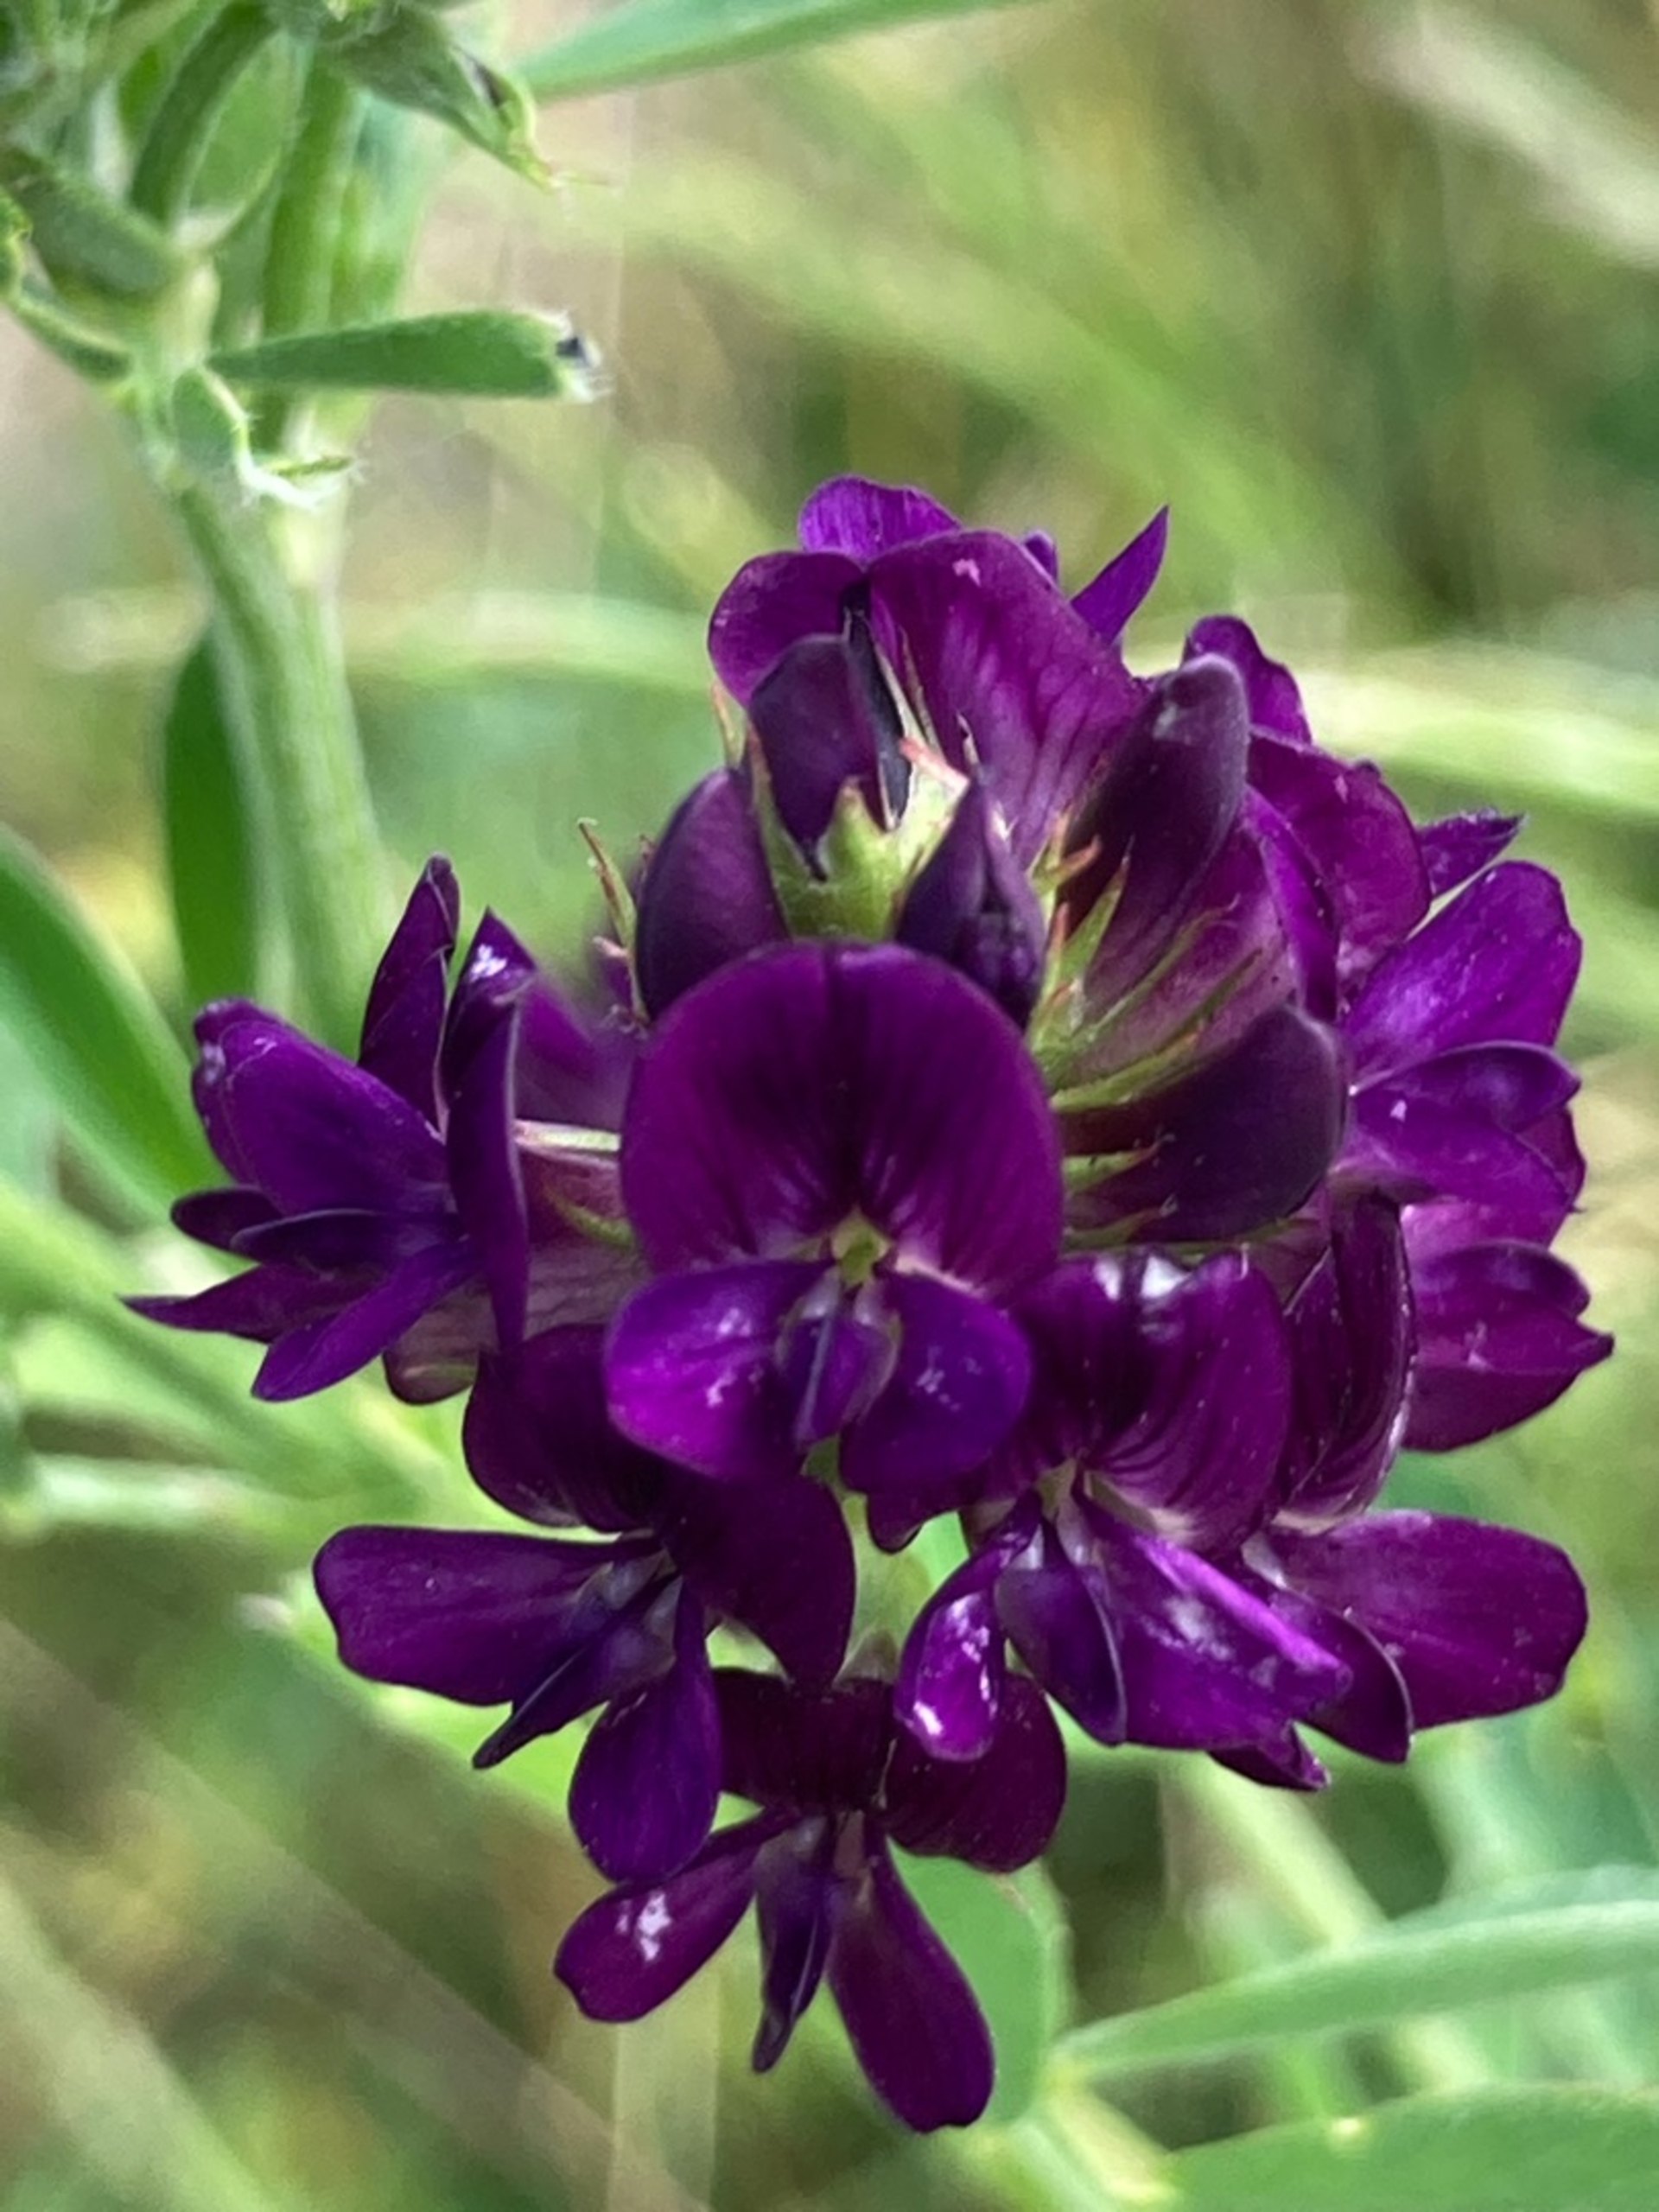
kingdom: Plantae
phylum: Tracheophyta
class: Magnoliopsida
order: Fabales
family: Fabaceae
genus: Medicago
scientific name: Medicago sativa
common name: Lucerne
